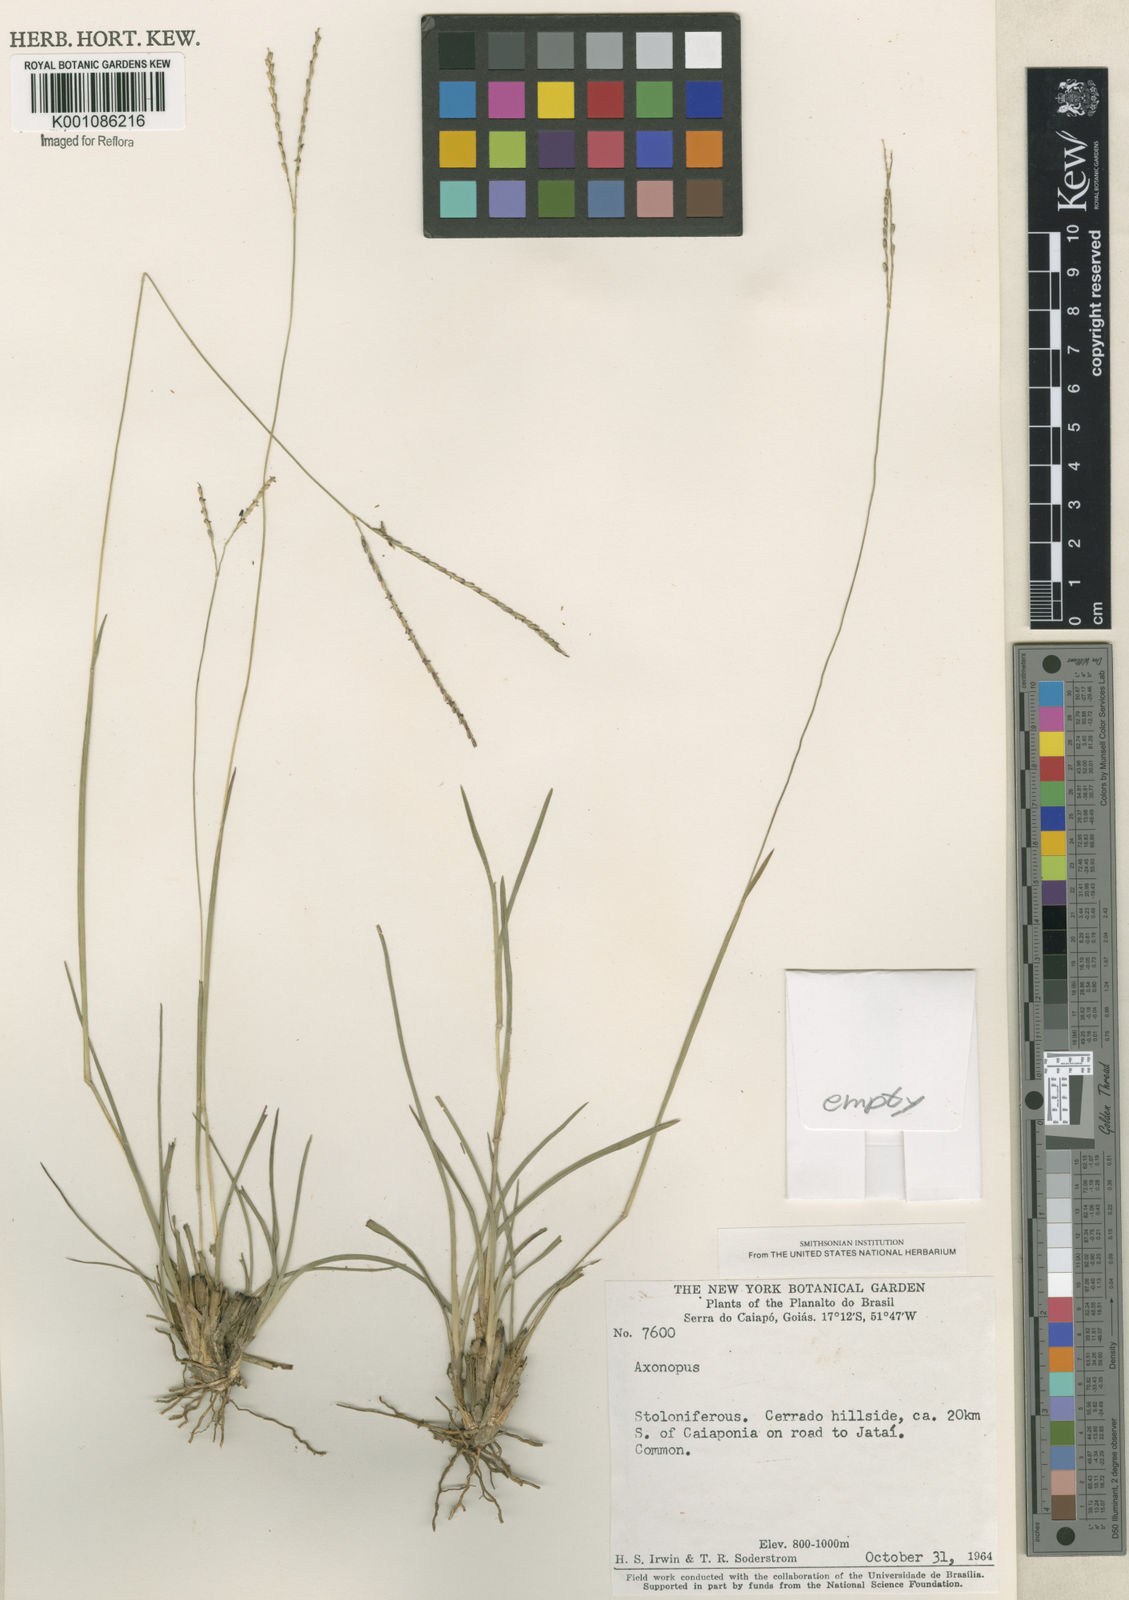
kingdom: Plantae
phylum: Tracheophyta
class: Liliopsida
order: Poales
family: Poaceae
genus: Axonopus
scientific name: Axonopus
